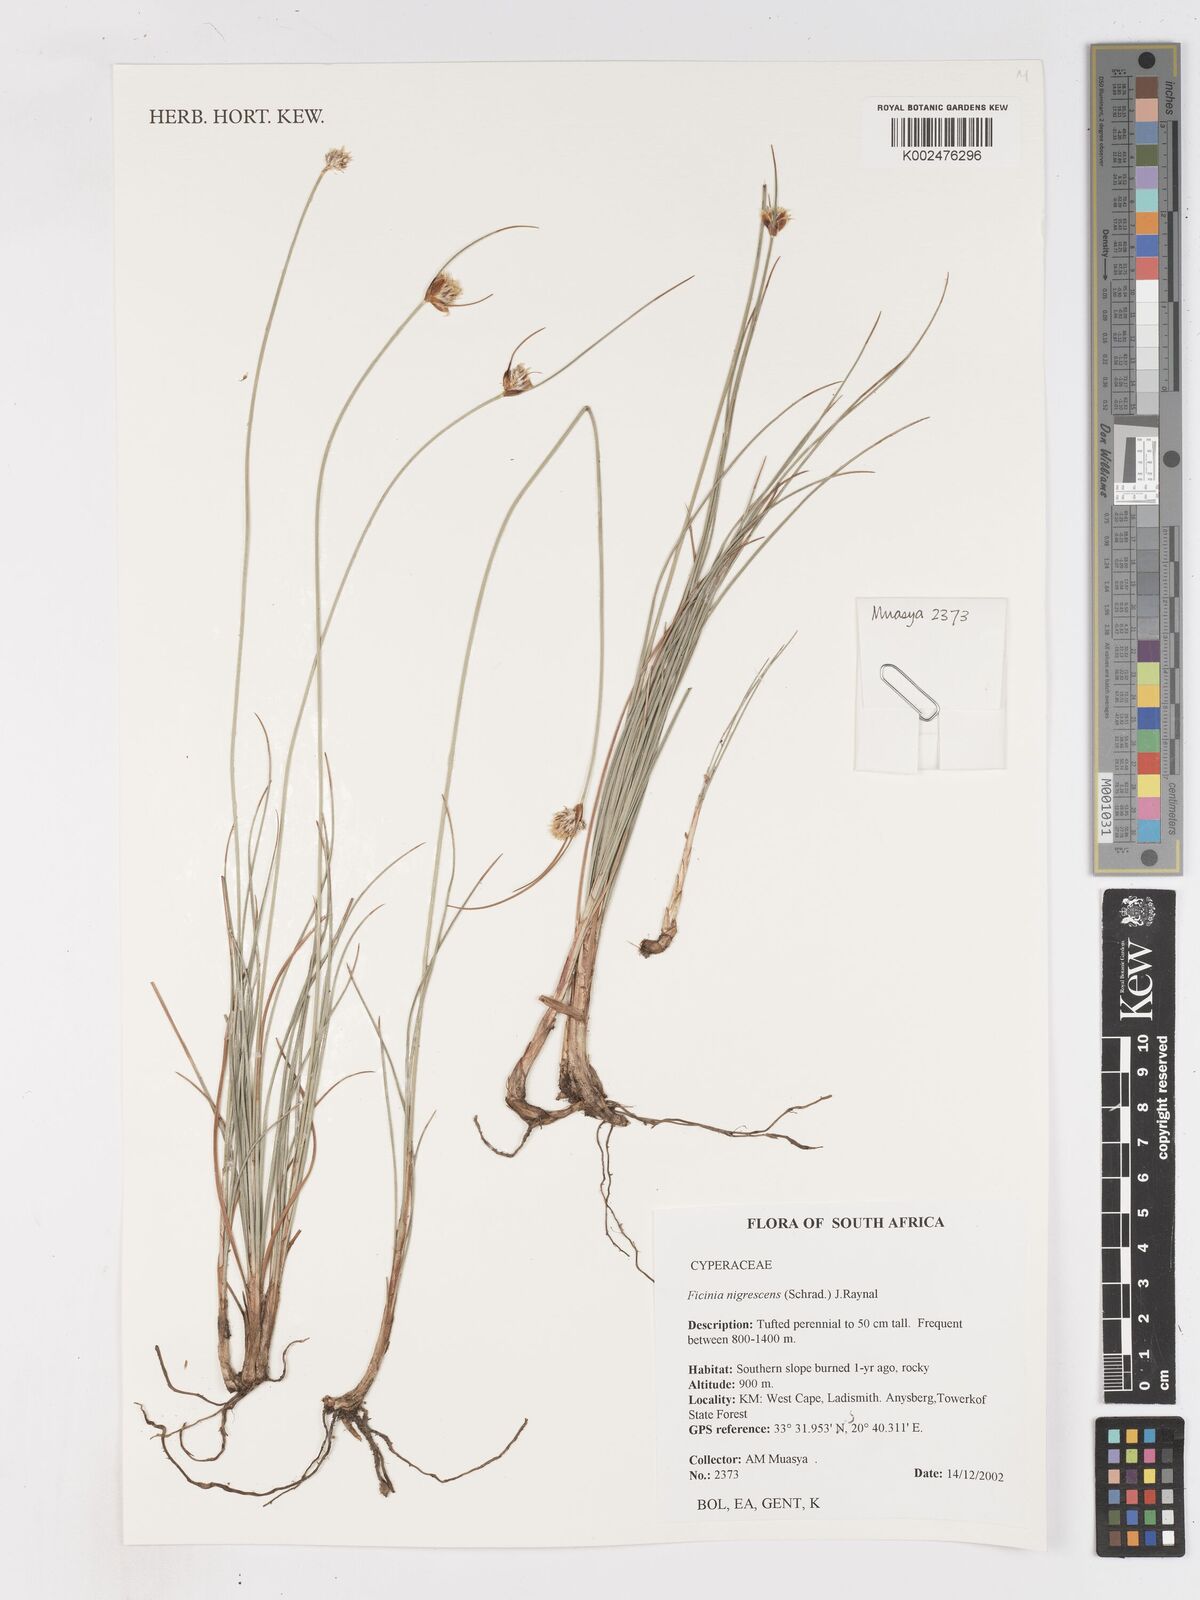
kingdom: Plantae
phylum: Tracheophyta
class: Liliopsida
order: Poales
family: Cyperaceae
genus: Ficinia
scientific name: Ficinia nigrescens
